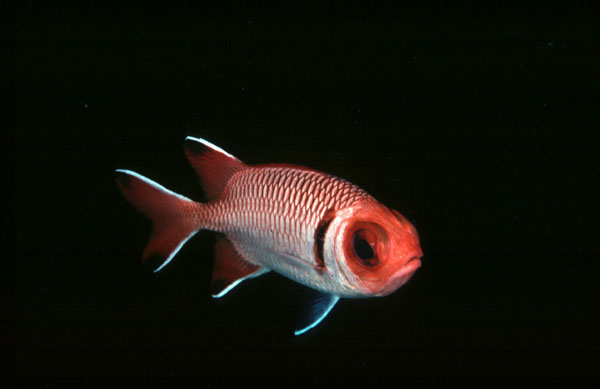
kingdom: Animalia
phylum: Chordata
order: Beryciformes
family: Holocentridae
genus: Myripristis
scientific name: Myripristis botche
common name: Blacktip soldierfish
